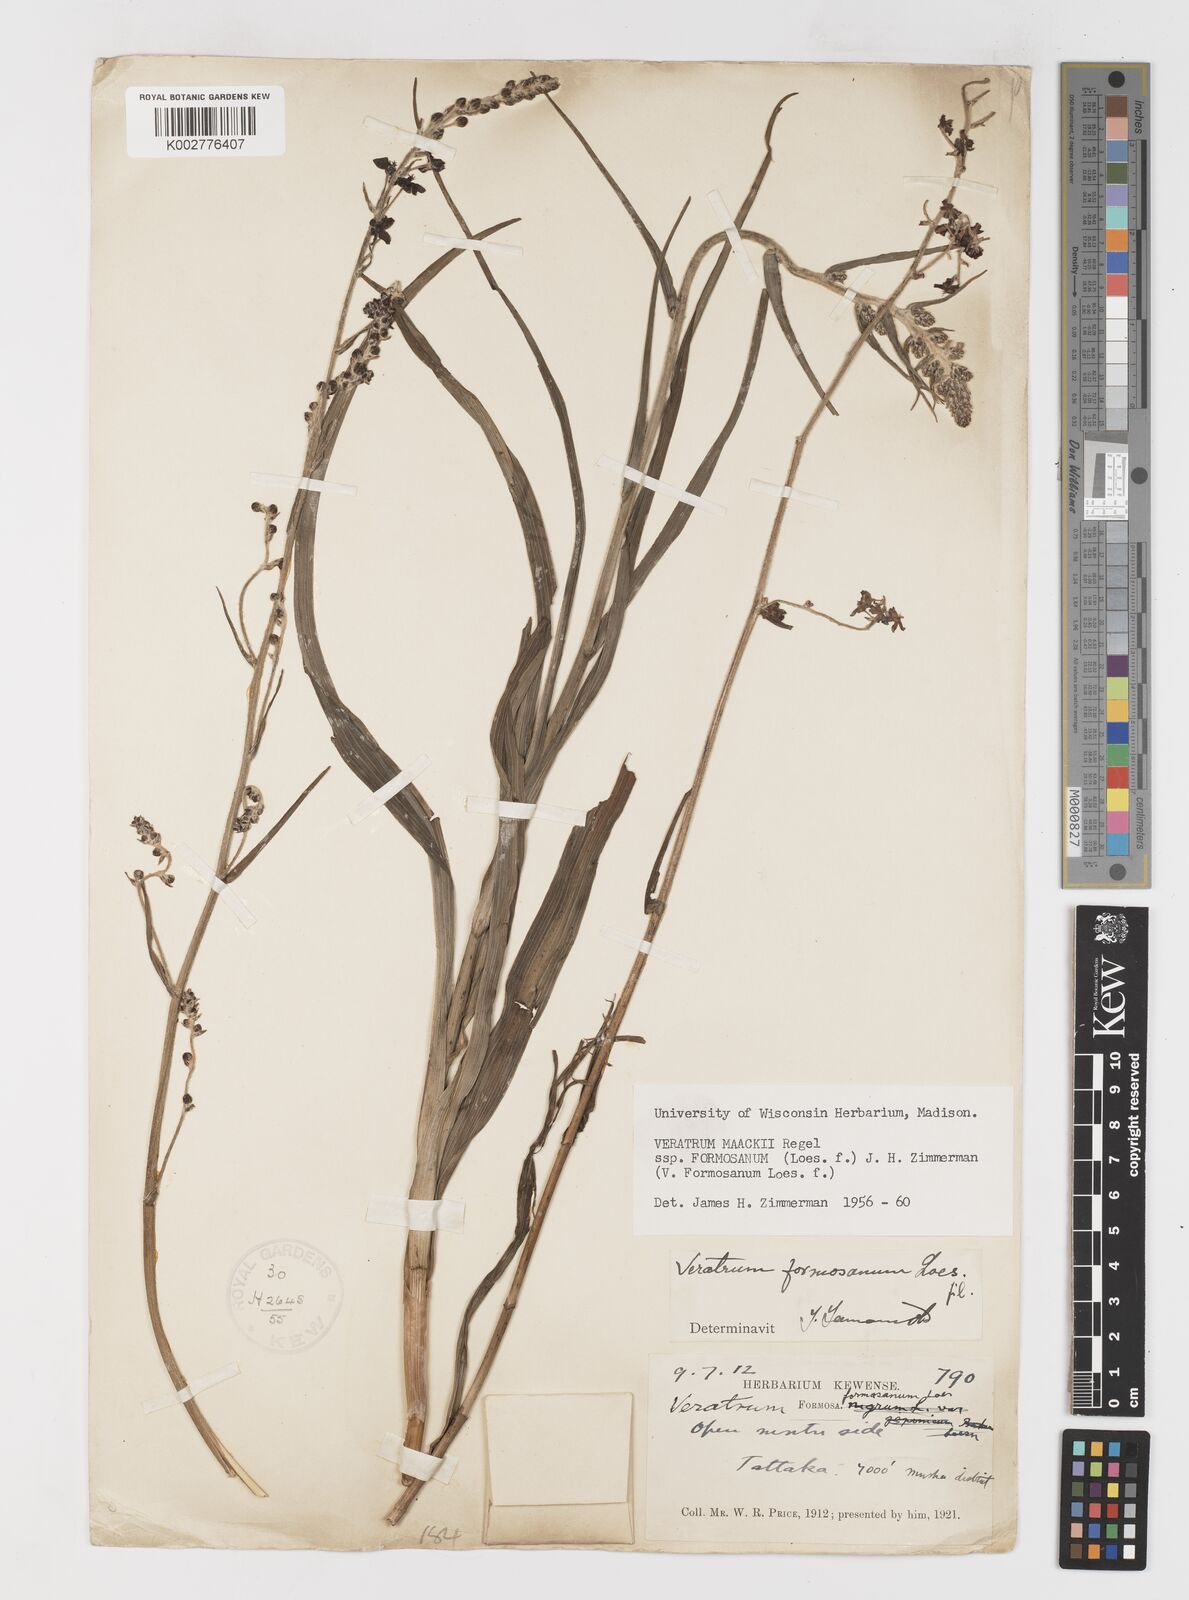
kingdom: Plantae
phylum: Tracheophyta
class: Liliopsida
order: Liliales
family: Melanthiaceae
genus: Veratrum
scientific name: Veratrum formosanum
